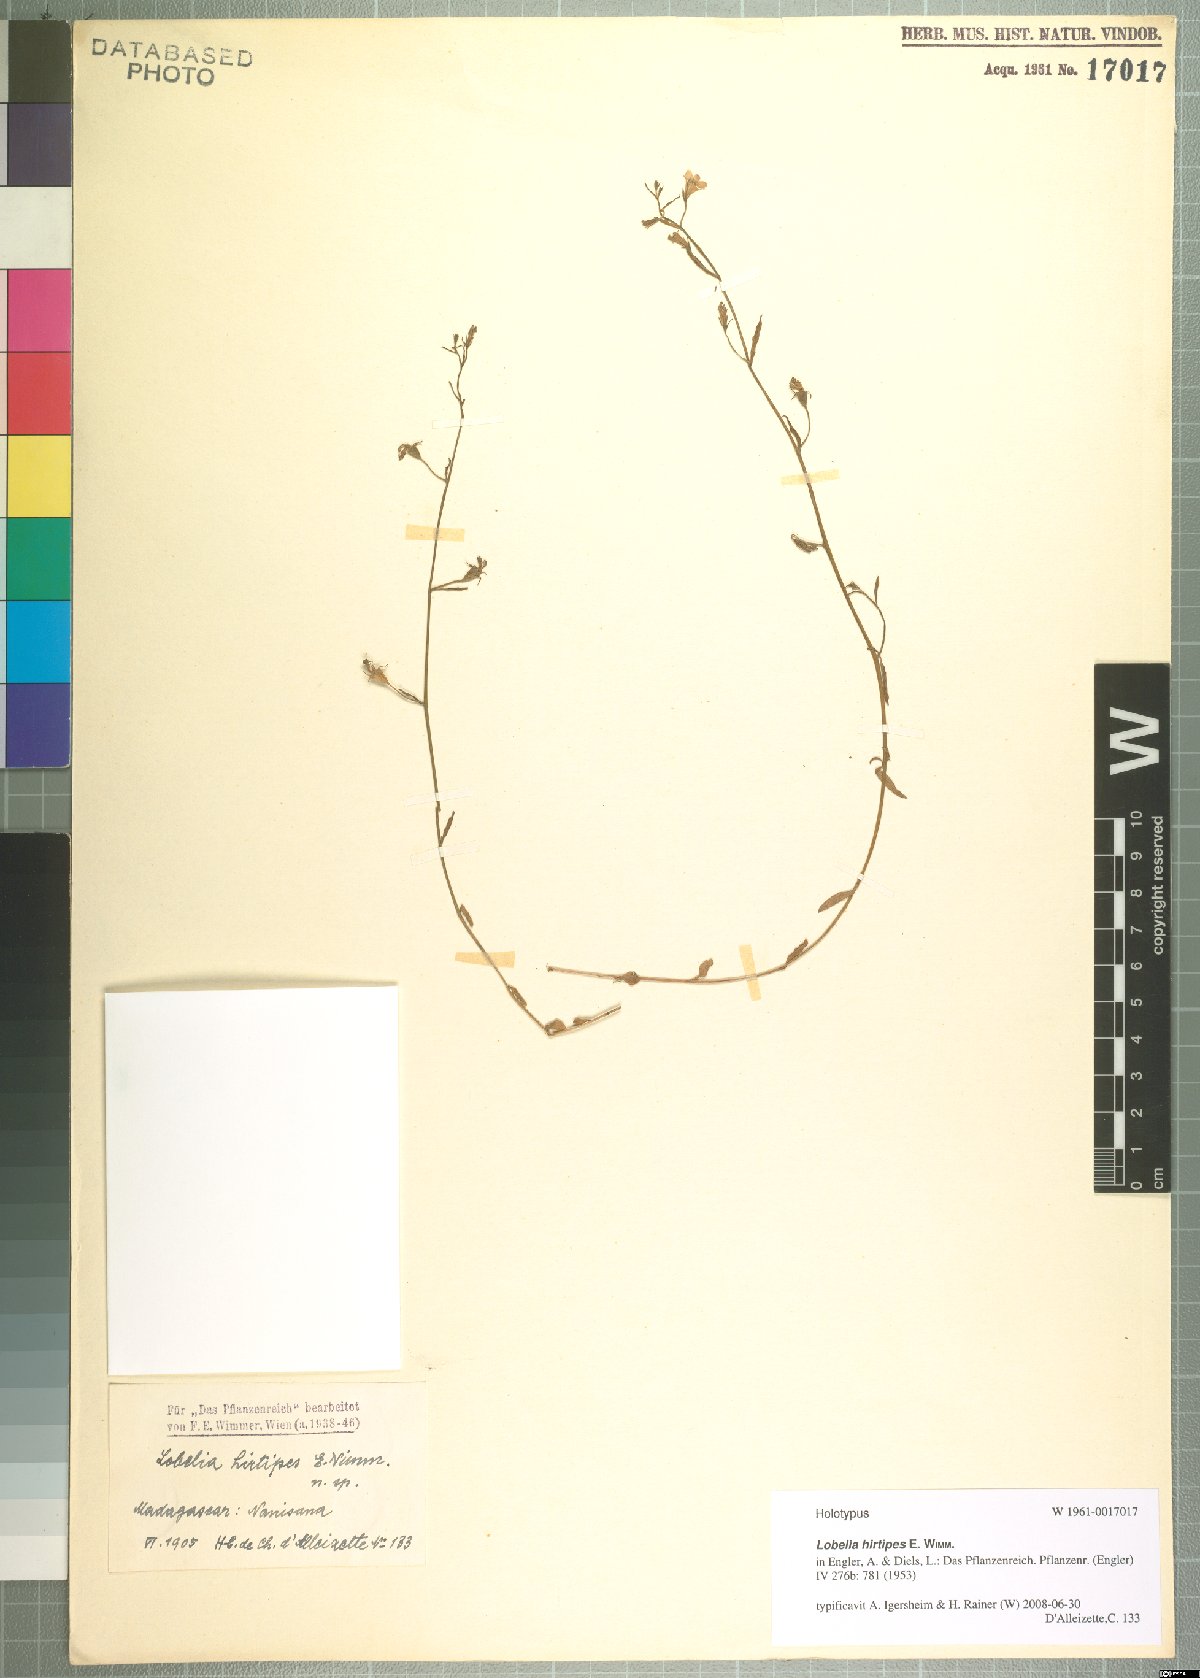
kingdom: Plantae
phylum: Tracheophyta
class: Magnoliopsida
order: Asterales
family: Campanulaceae
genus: Lobelia
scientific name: Lobelia hirtipes
